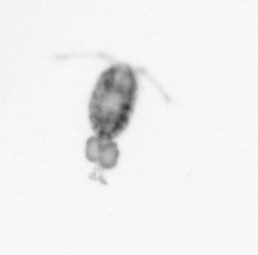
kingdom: Animalia
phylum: Arthropoda
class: Copepoda
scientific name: Copepoda
